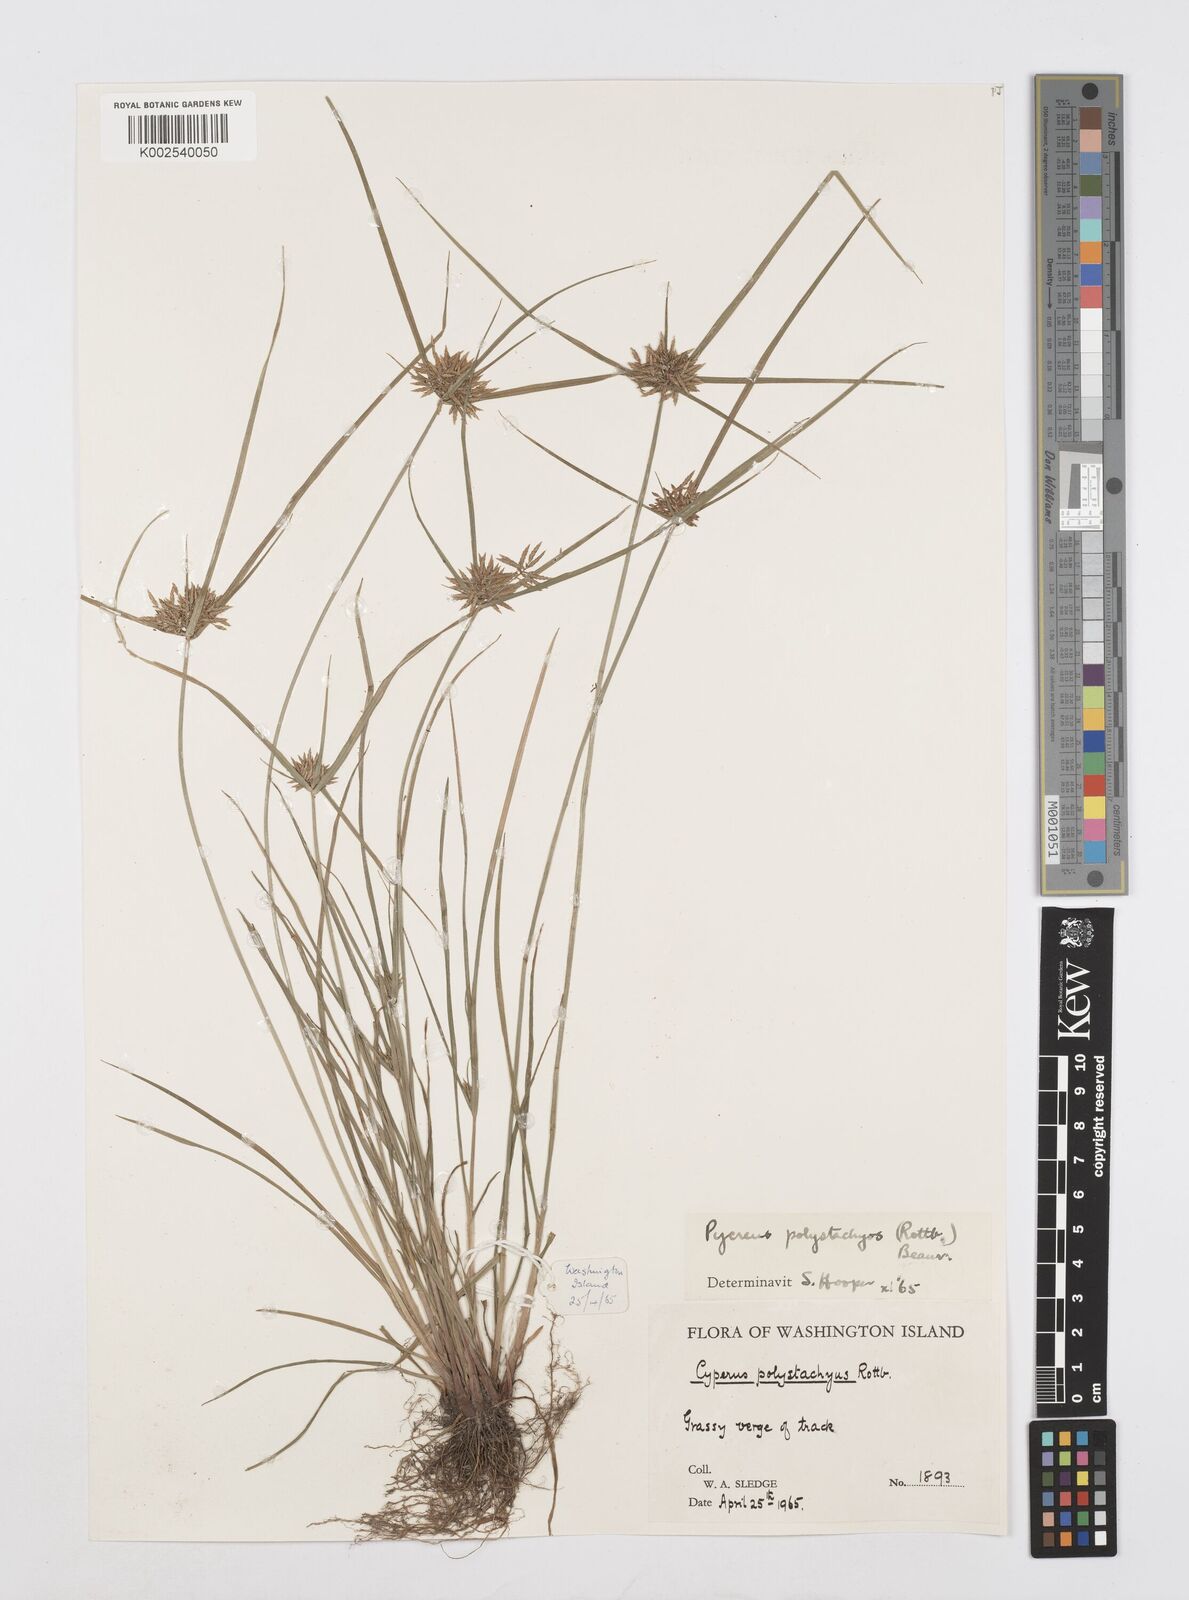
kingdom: Plantae
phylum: Tracheophyta
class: Liliopsida
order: Poales
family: Cyperaceae
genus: Cyperus
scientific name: Cyperus polystachyos
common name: Bunchy flat sedge
